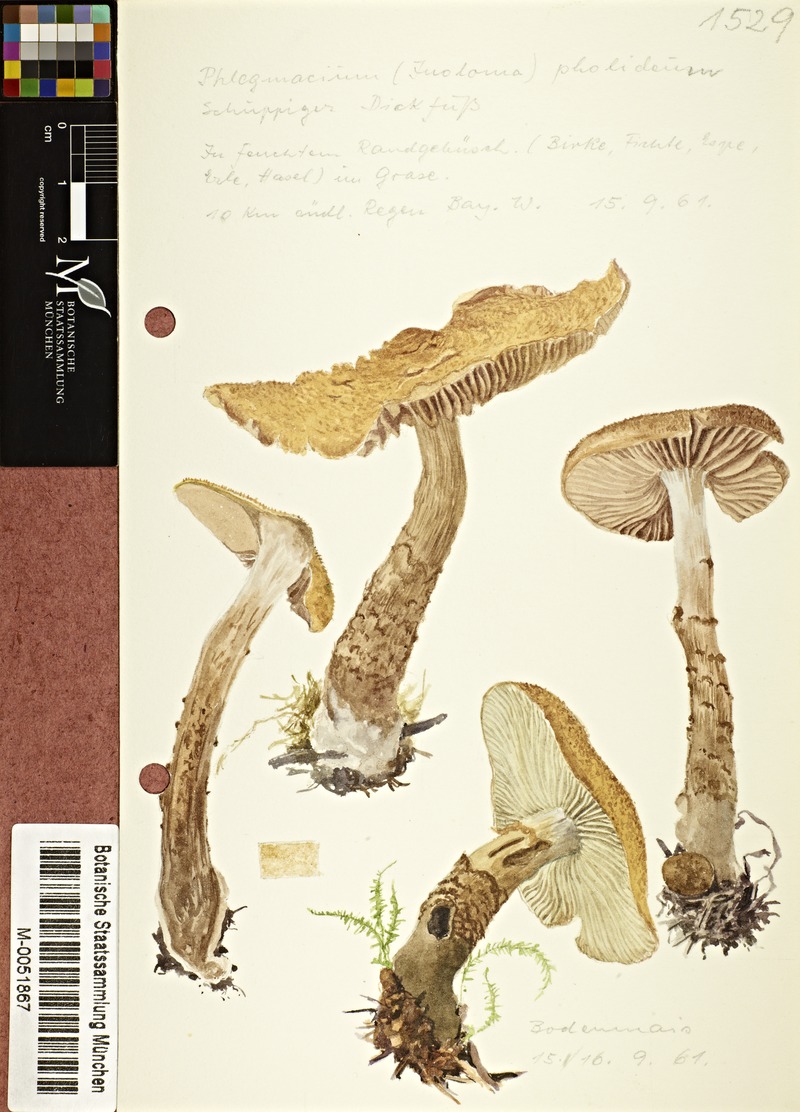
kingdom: Fungi
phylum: Basidiomycota
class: Agaricomycetes
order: Agaricales
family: Cortinariaceae
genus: Cortinarius
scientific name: Cortinarius pholideus
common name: Scaly webcap
